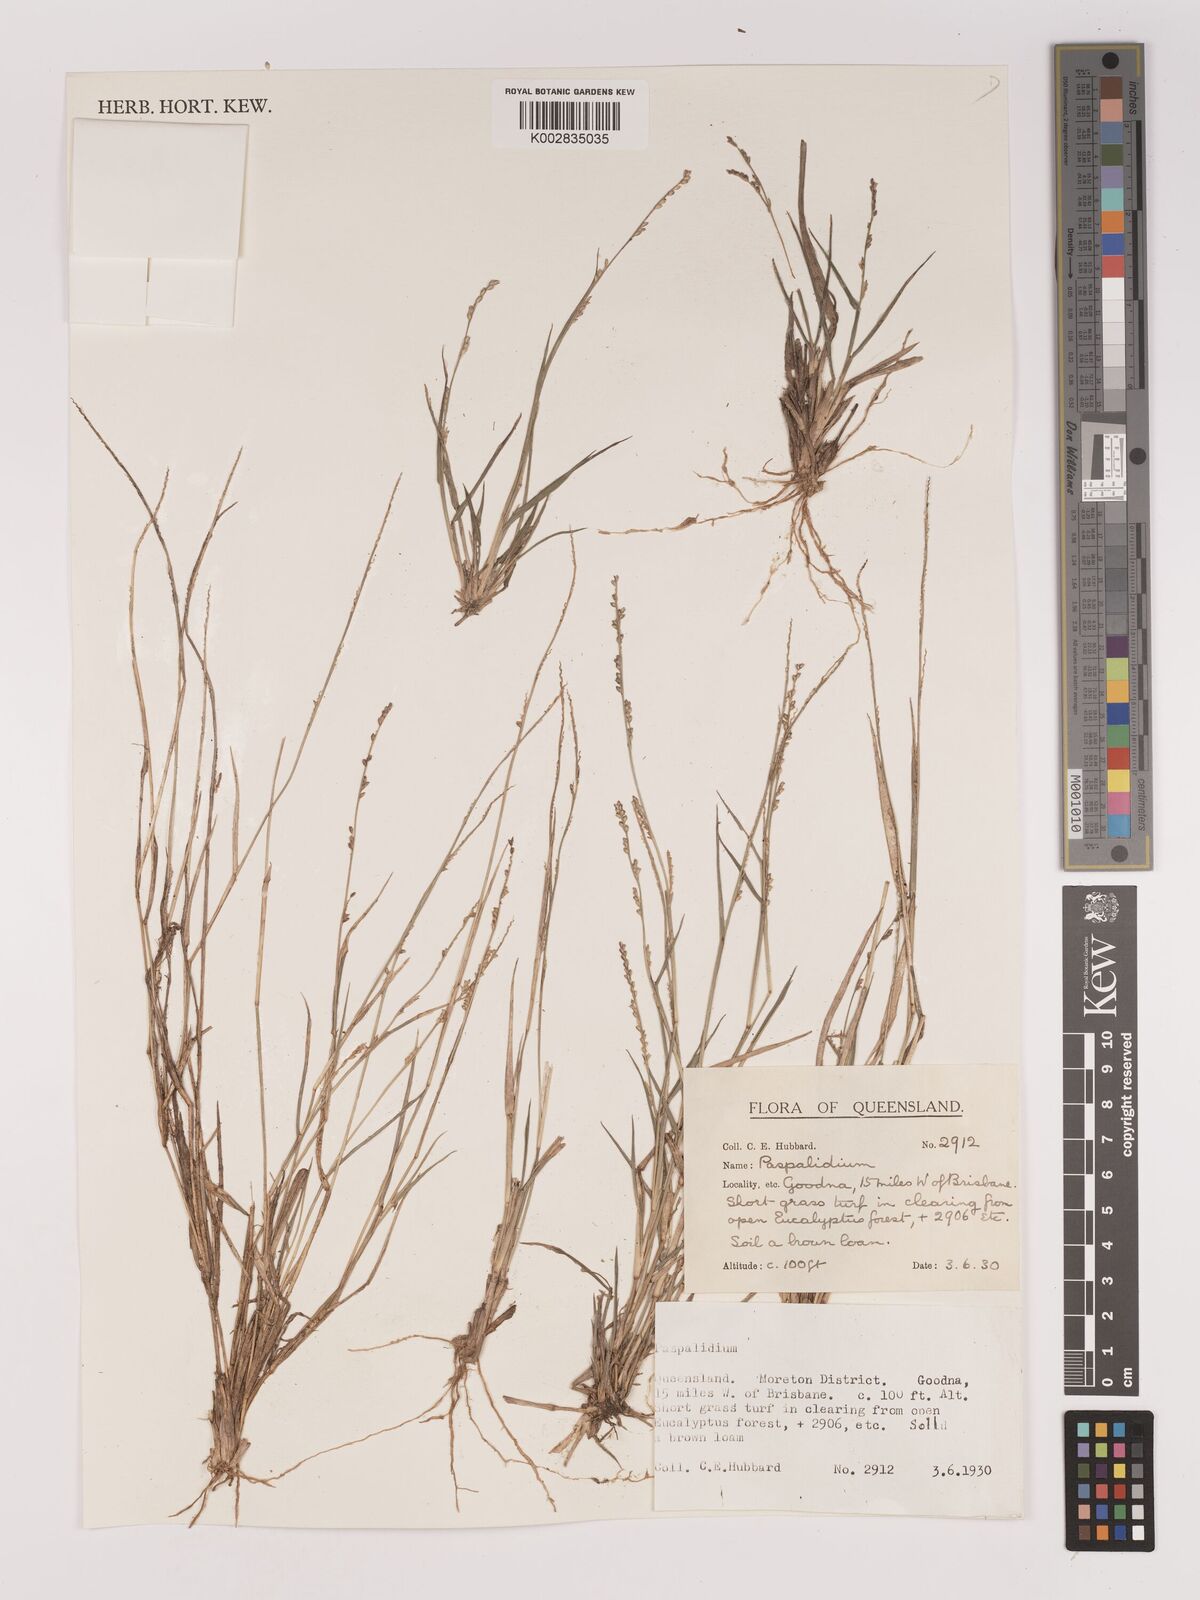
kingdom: Plantae
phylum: Tracheophyta
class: Liliopsida
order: Poales
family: Poaceae
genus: Setaria
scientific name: Setaria
